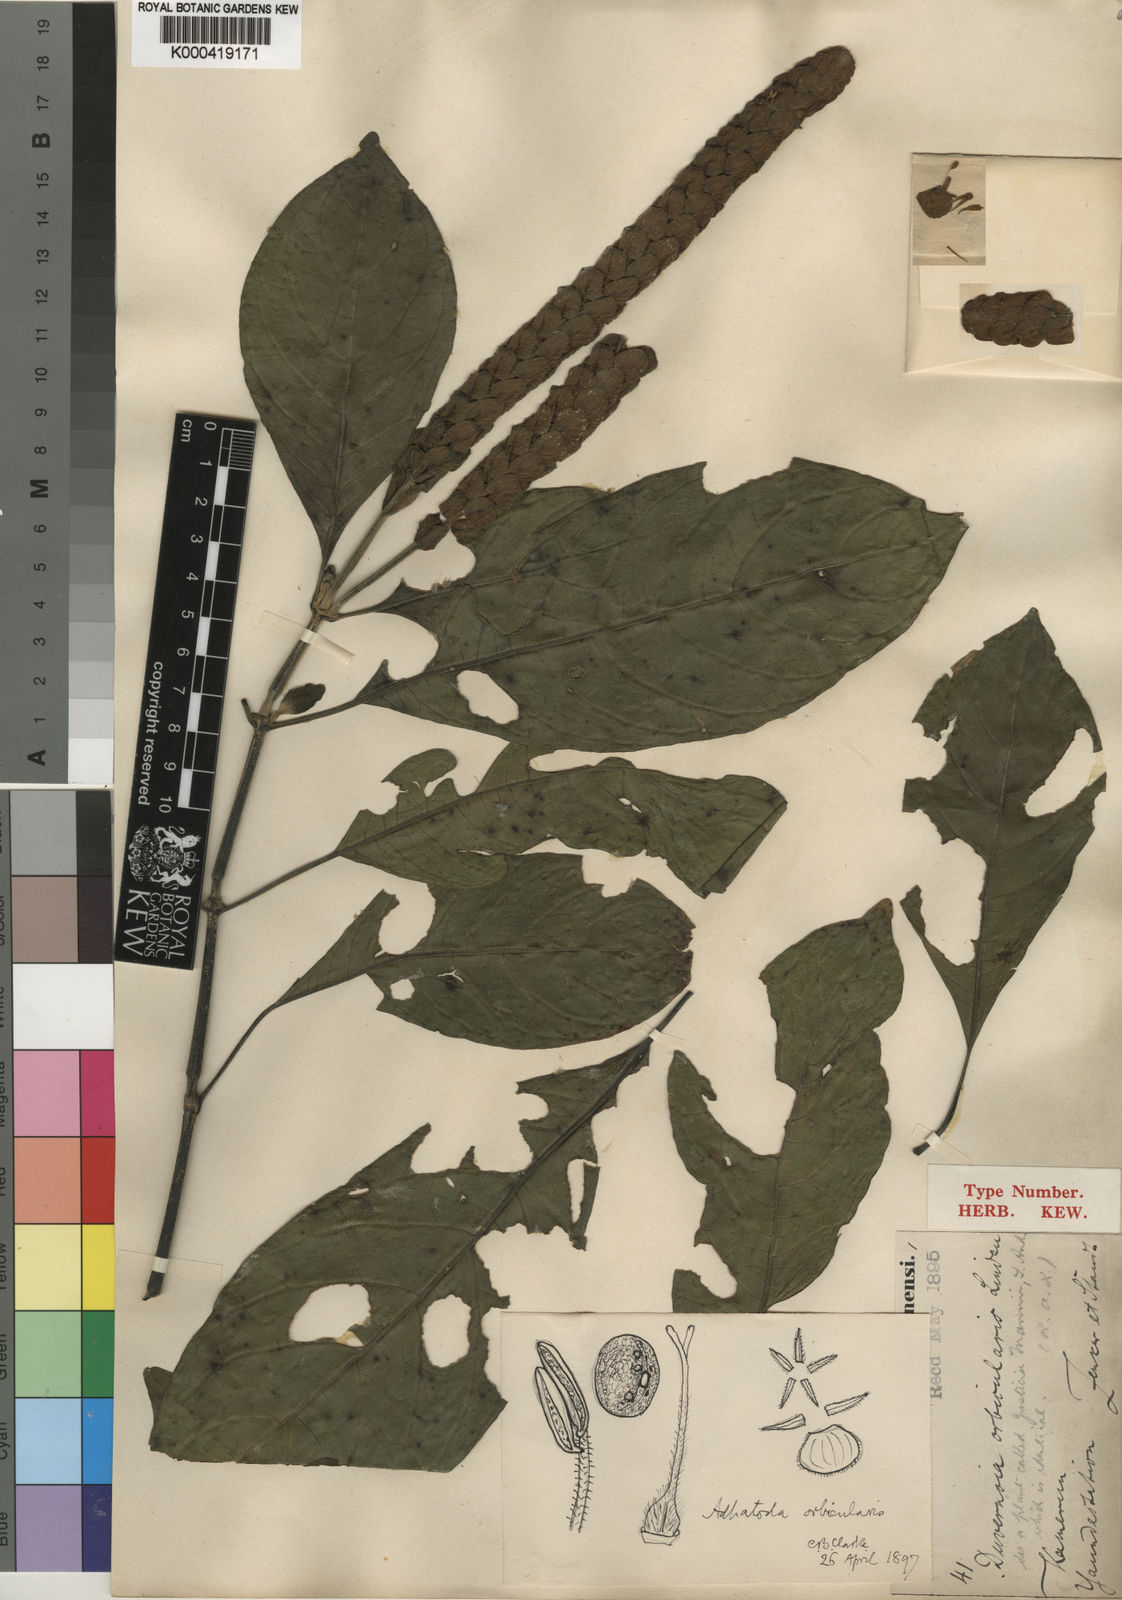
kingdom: Plantae
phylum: Tracheophyta
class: Magnoliopsida
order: Lamiales
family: Acanthaceae
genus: Justicia
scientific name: Justicia orbicularis
